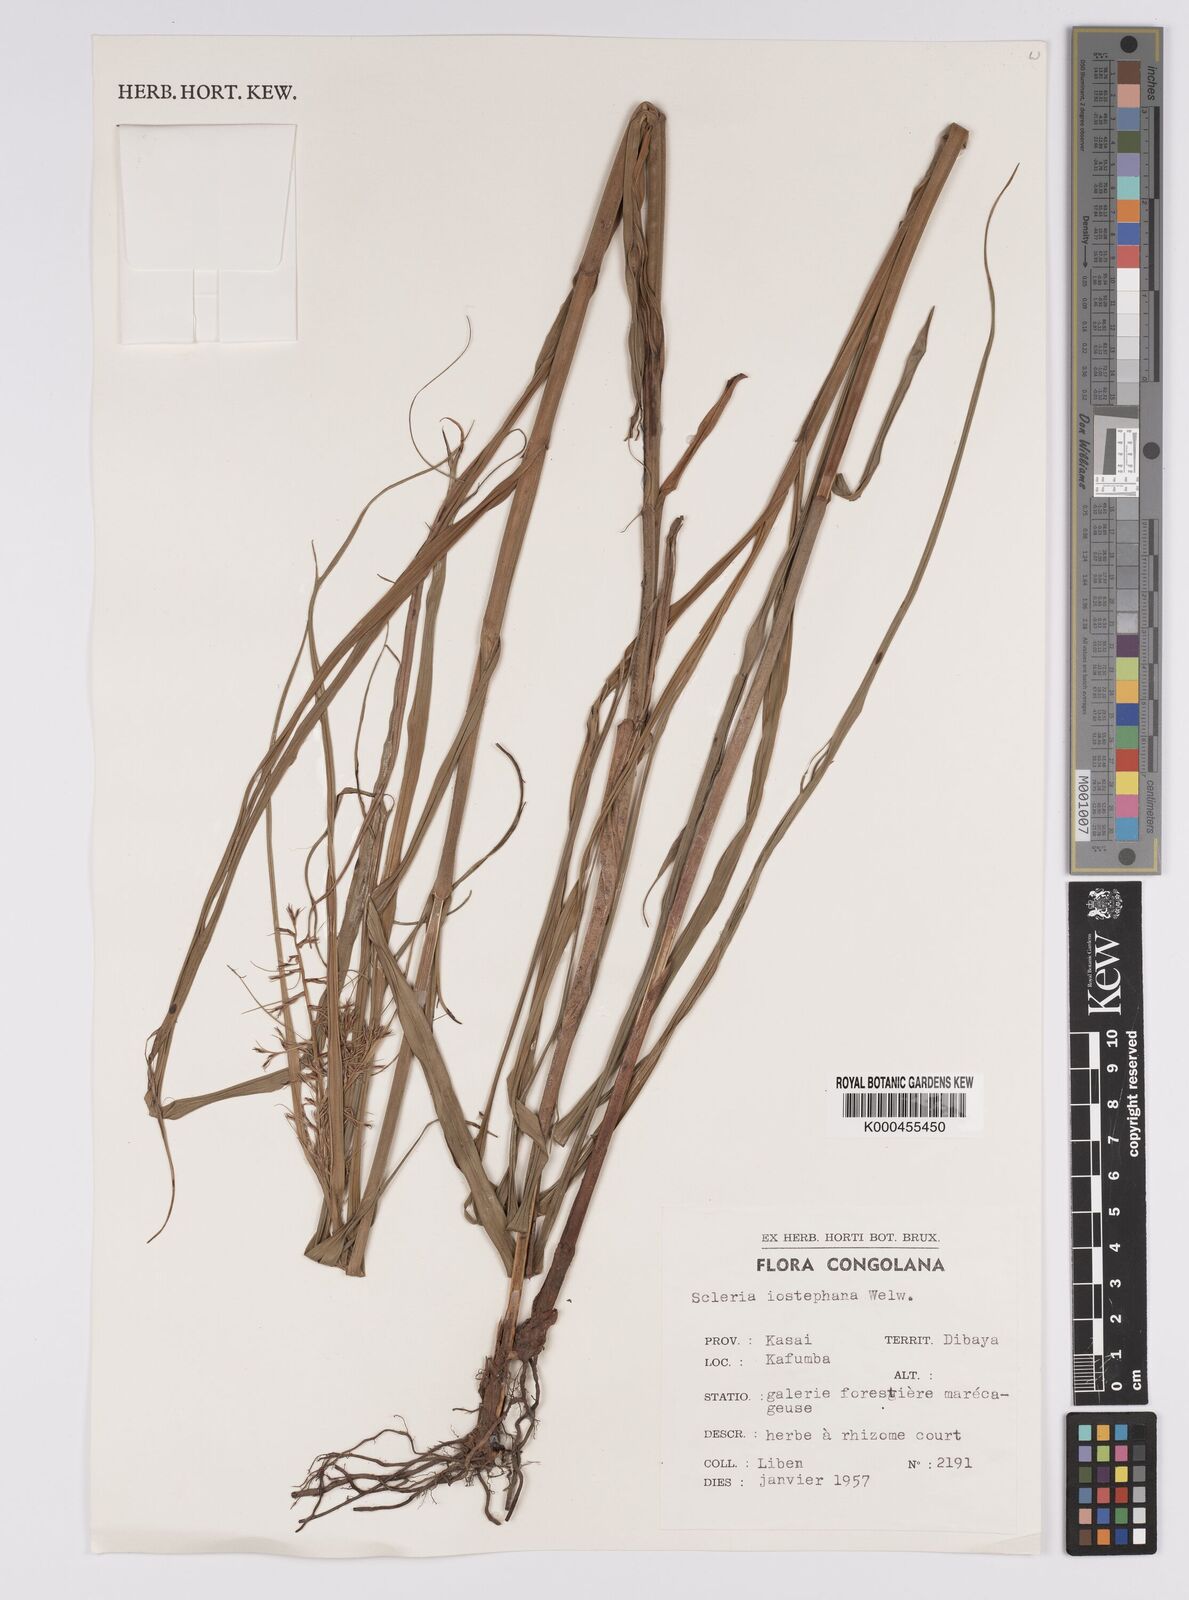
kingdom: Plantae
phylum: Tracheophyta
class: Liliopsida
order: Poales
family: Cyperaceae
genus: Scleria
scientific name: Scleria iostephana
